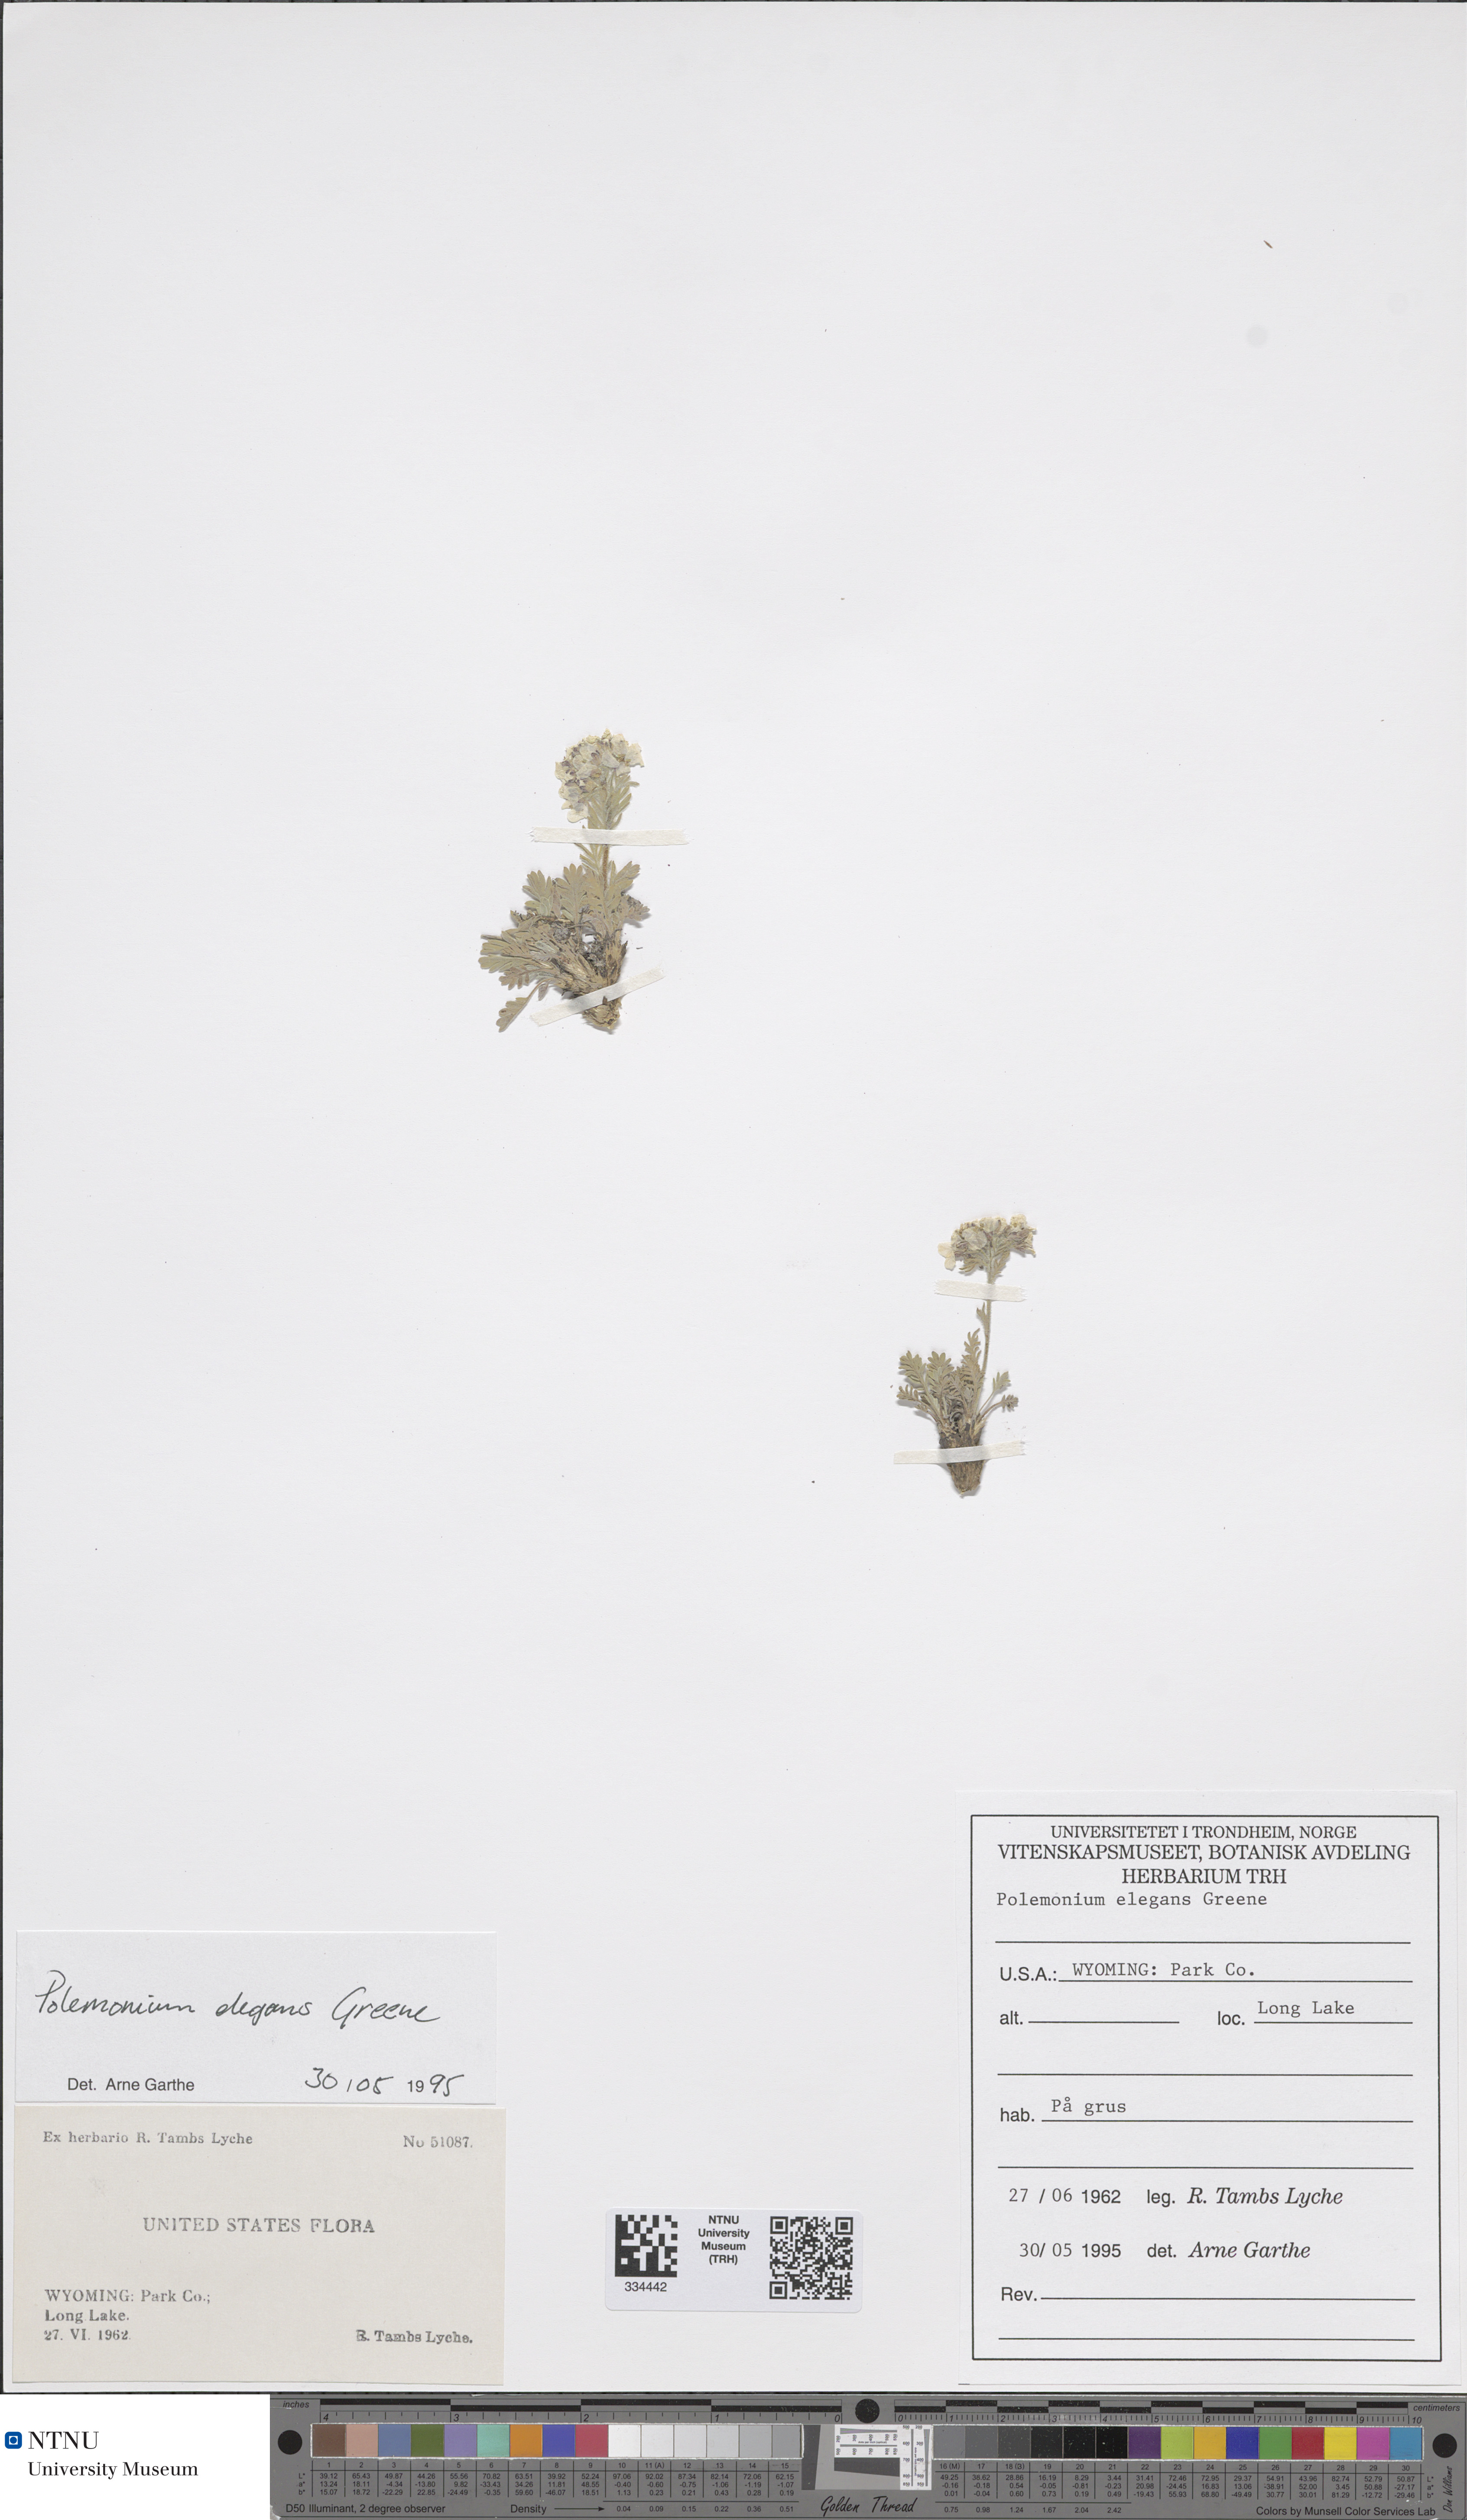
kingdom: Plantae
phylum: Tracheophyta
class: Magnoliopsida
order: Ericales
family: Polemoniaceae
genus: Polemonium
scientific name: Polemonium elegans
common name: Elegant jacob's-ladder
